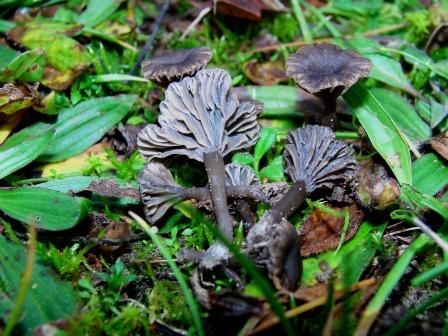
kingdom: Fungi
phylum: Basidiomycota
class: Agaricomycetes
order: Agaricales
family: Hygrophoraceae
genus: Arrhenia
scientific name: Arrhenia obscurata
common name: hede-fontænehat
